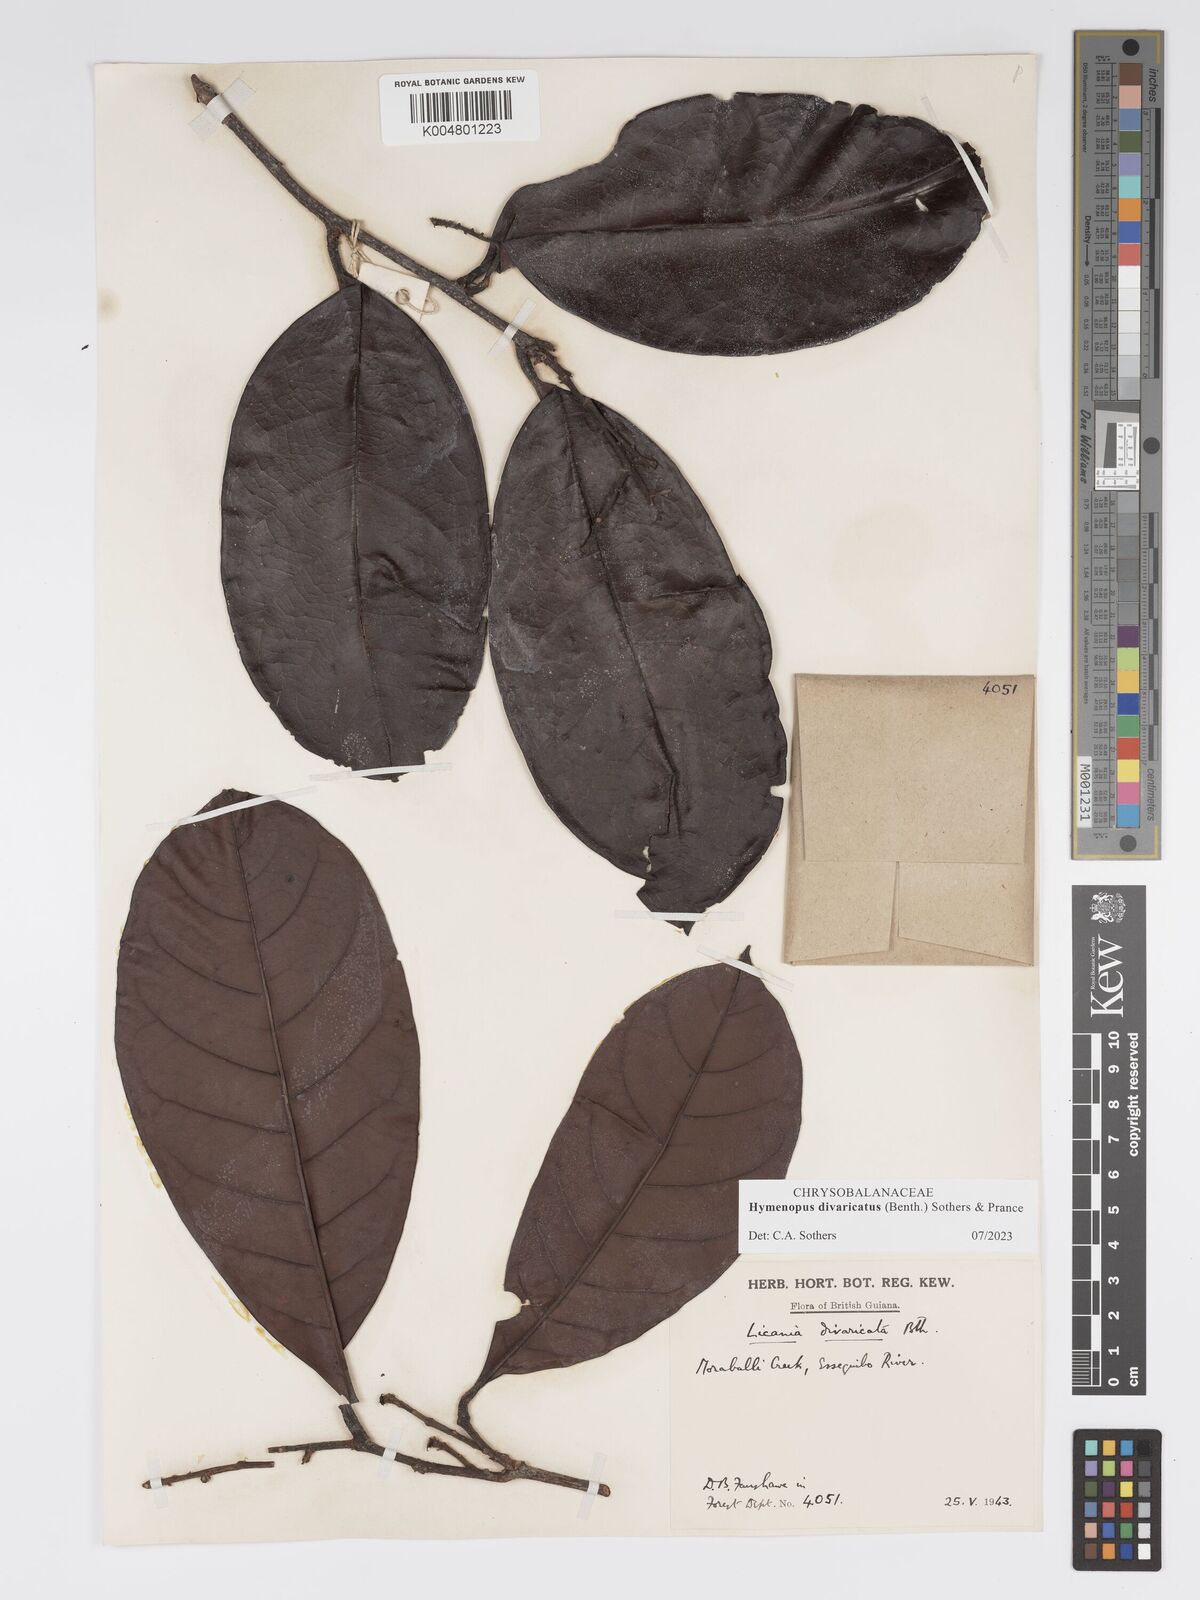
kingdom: Plantae
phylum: Tracheophyta
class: Magnoliopsida
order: Malpighiales
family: Chrysobalanaceae
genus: Hymenopus
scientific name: Hymenopus divaricatus
